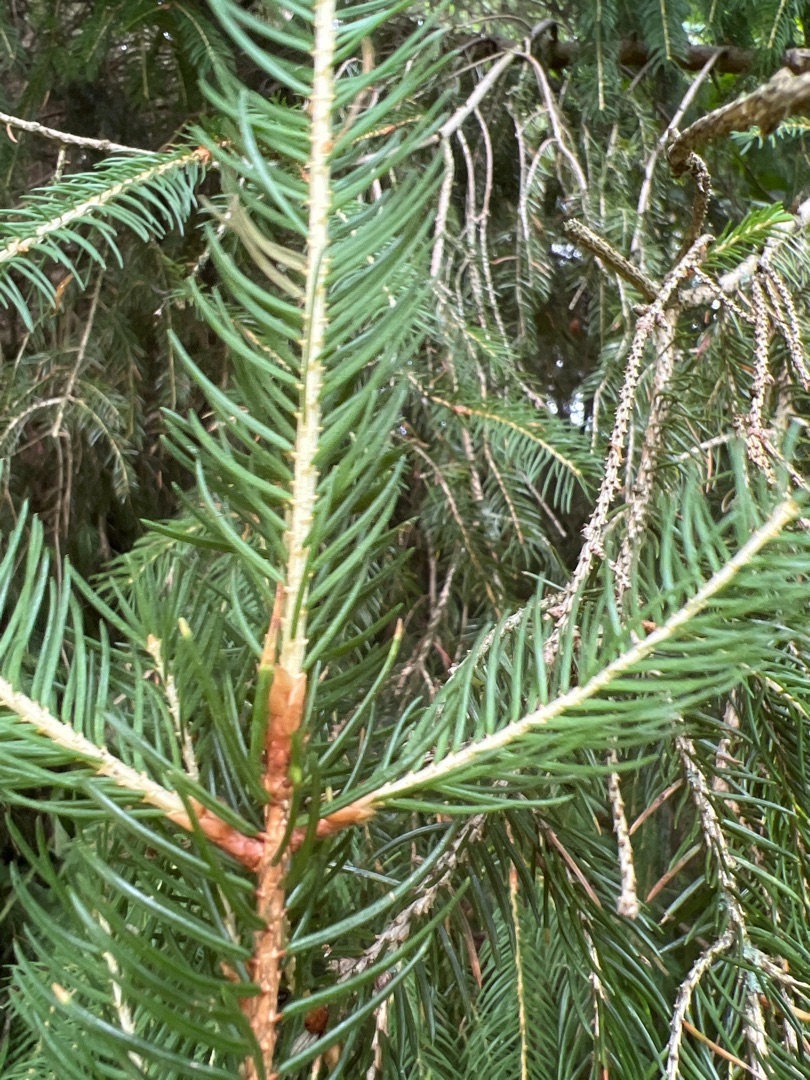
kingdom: Plantae
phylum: Tracheophyta
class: Pinopsida
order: Pinales
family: Pinaceae
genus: Picea
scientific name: Picea abies
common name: Rød-gran
